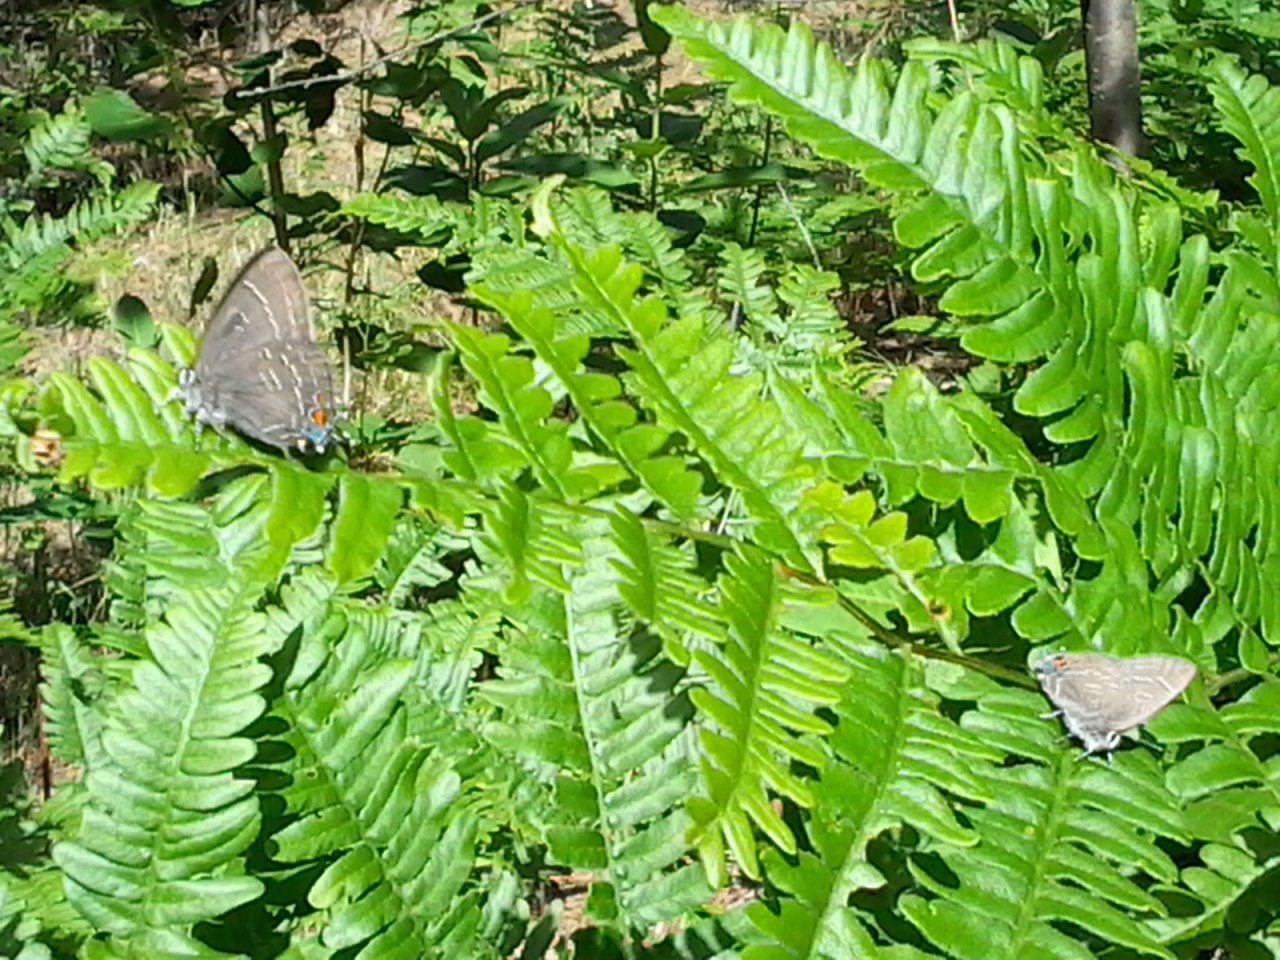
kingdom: Animalia
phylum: Arthropoda
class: Insecta
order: Lepidoptera
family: Lycaenidae
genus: Satyrium
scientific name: Satyrium calanus
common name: Banded Hairstreak
